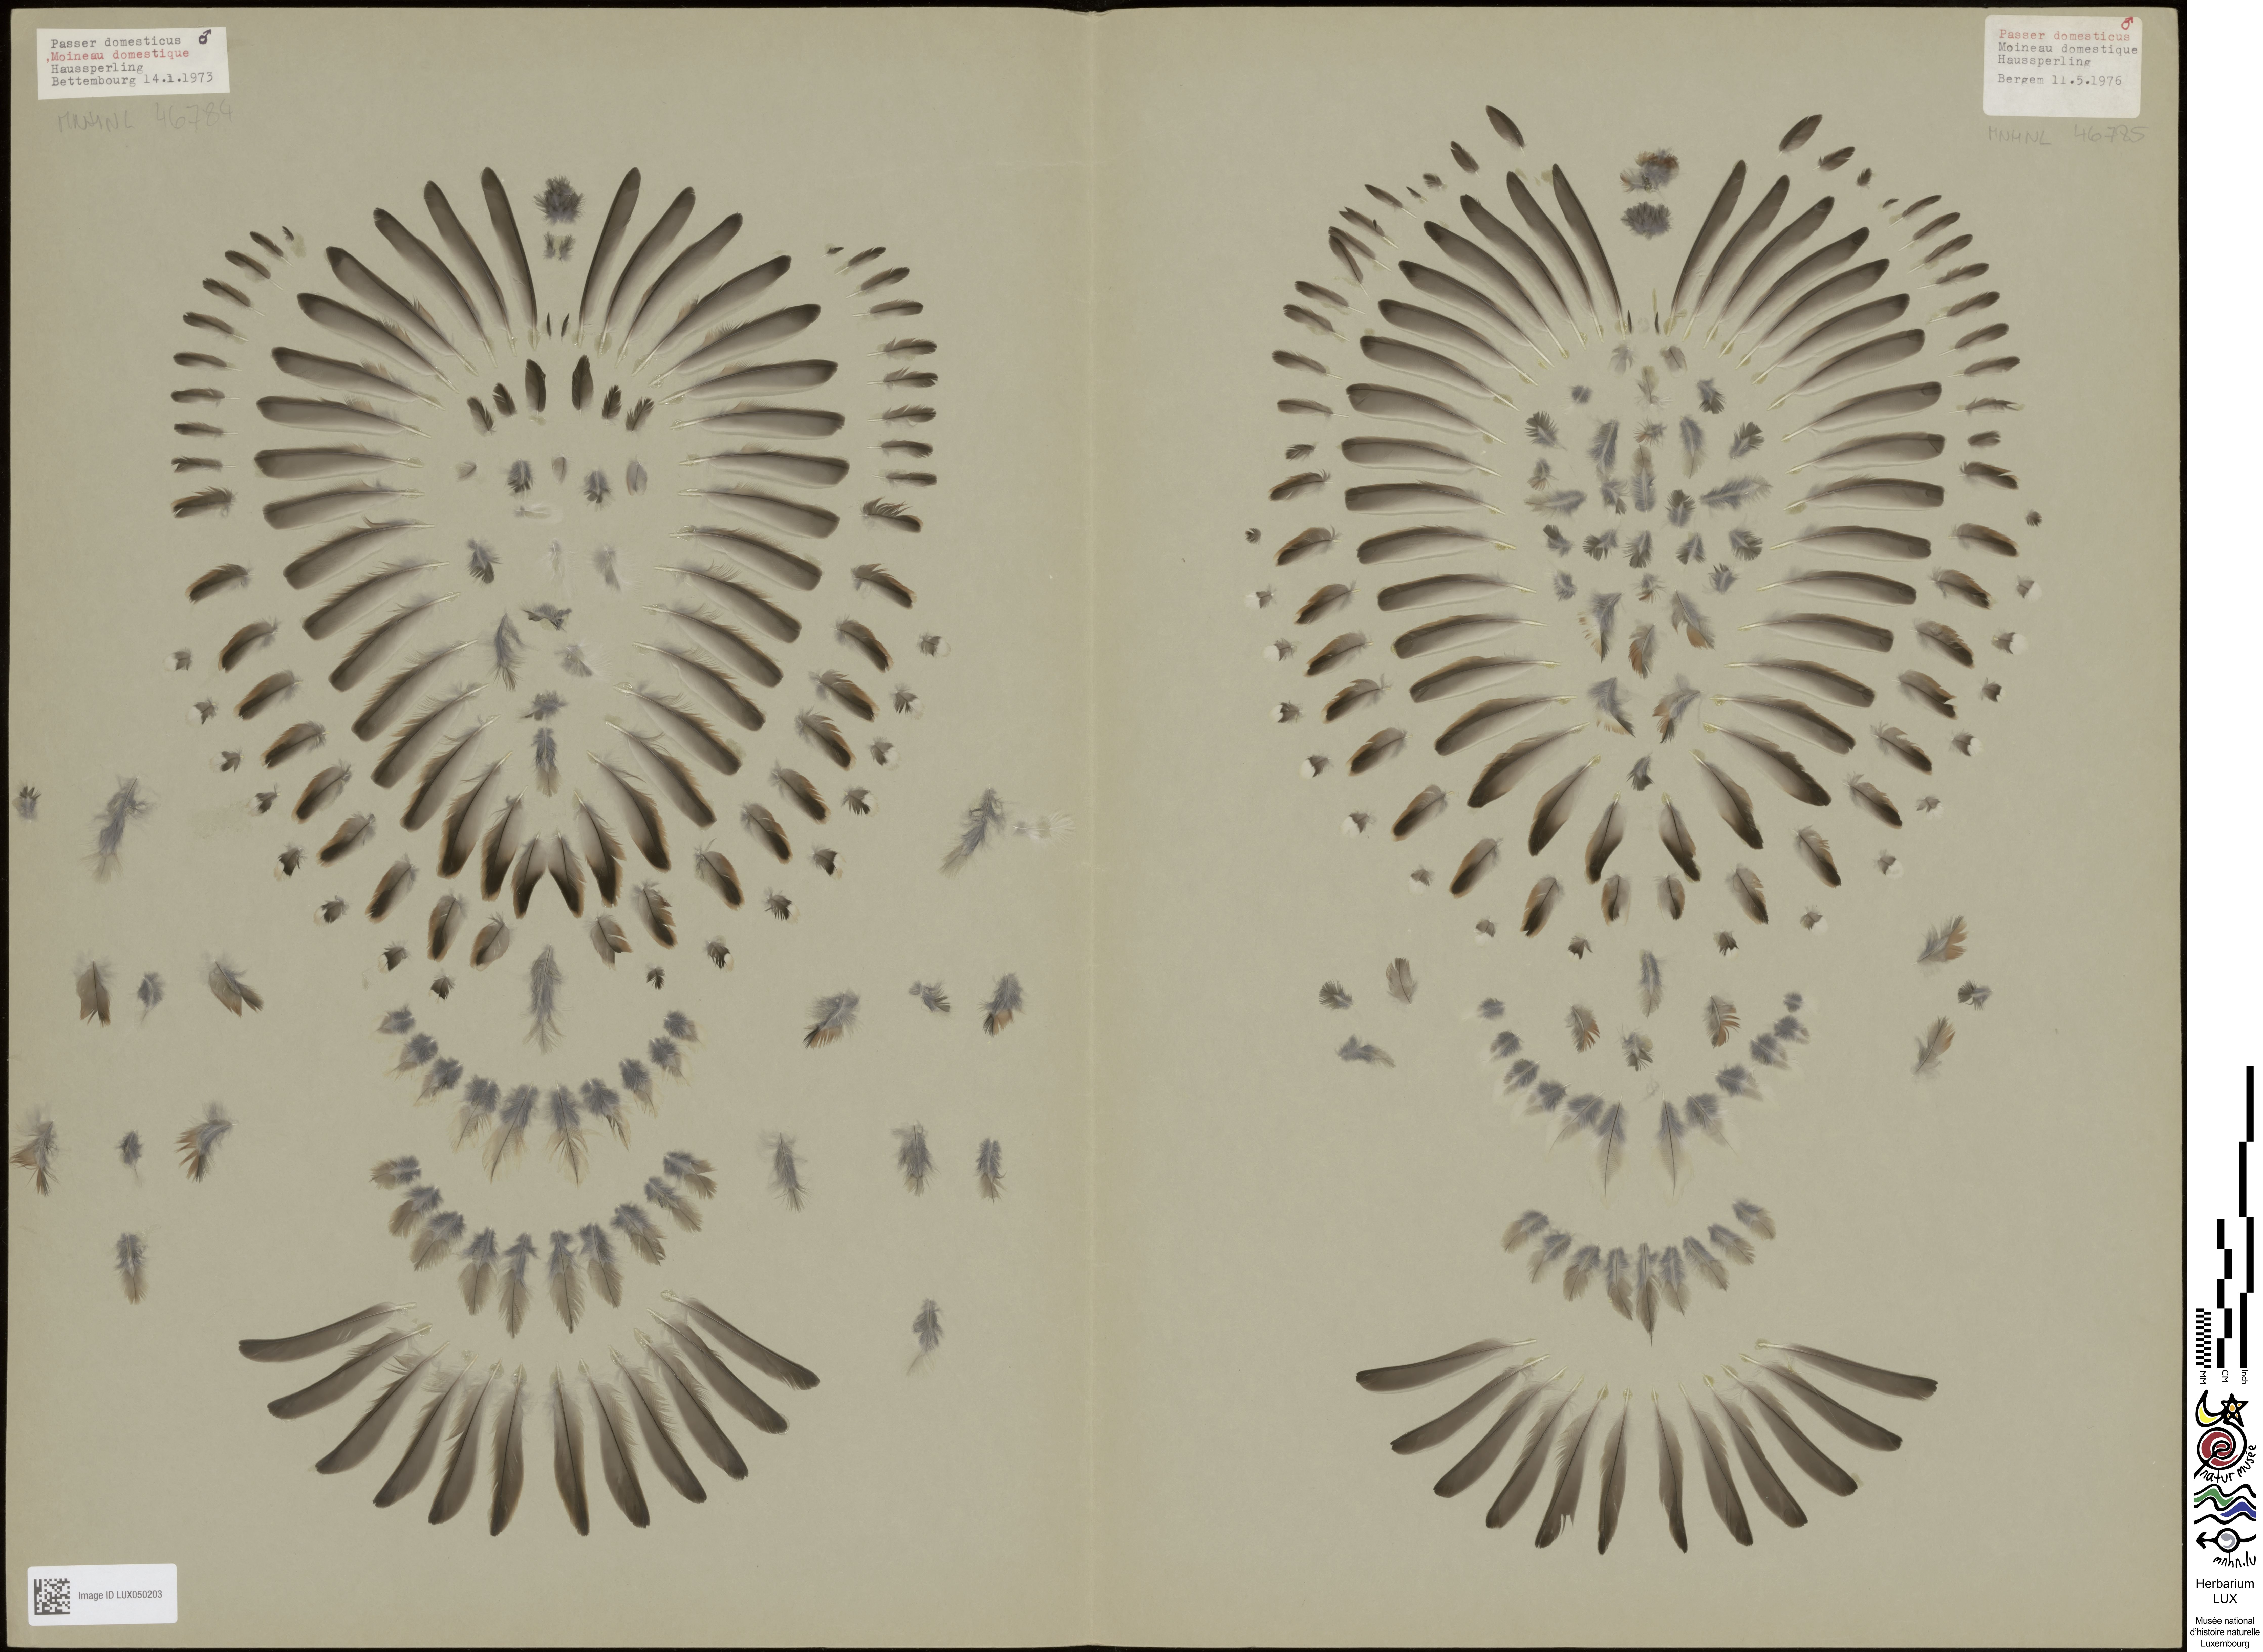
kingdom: Animalia
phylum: Chordata
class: Aves
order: Passeriformes
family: Passeridae
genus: Passer
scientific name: Passer domesticus
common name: House sparrow
